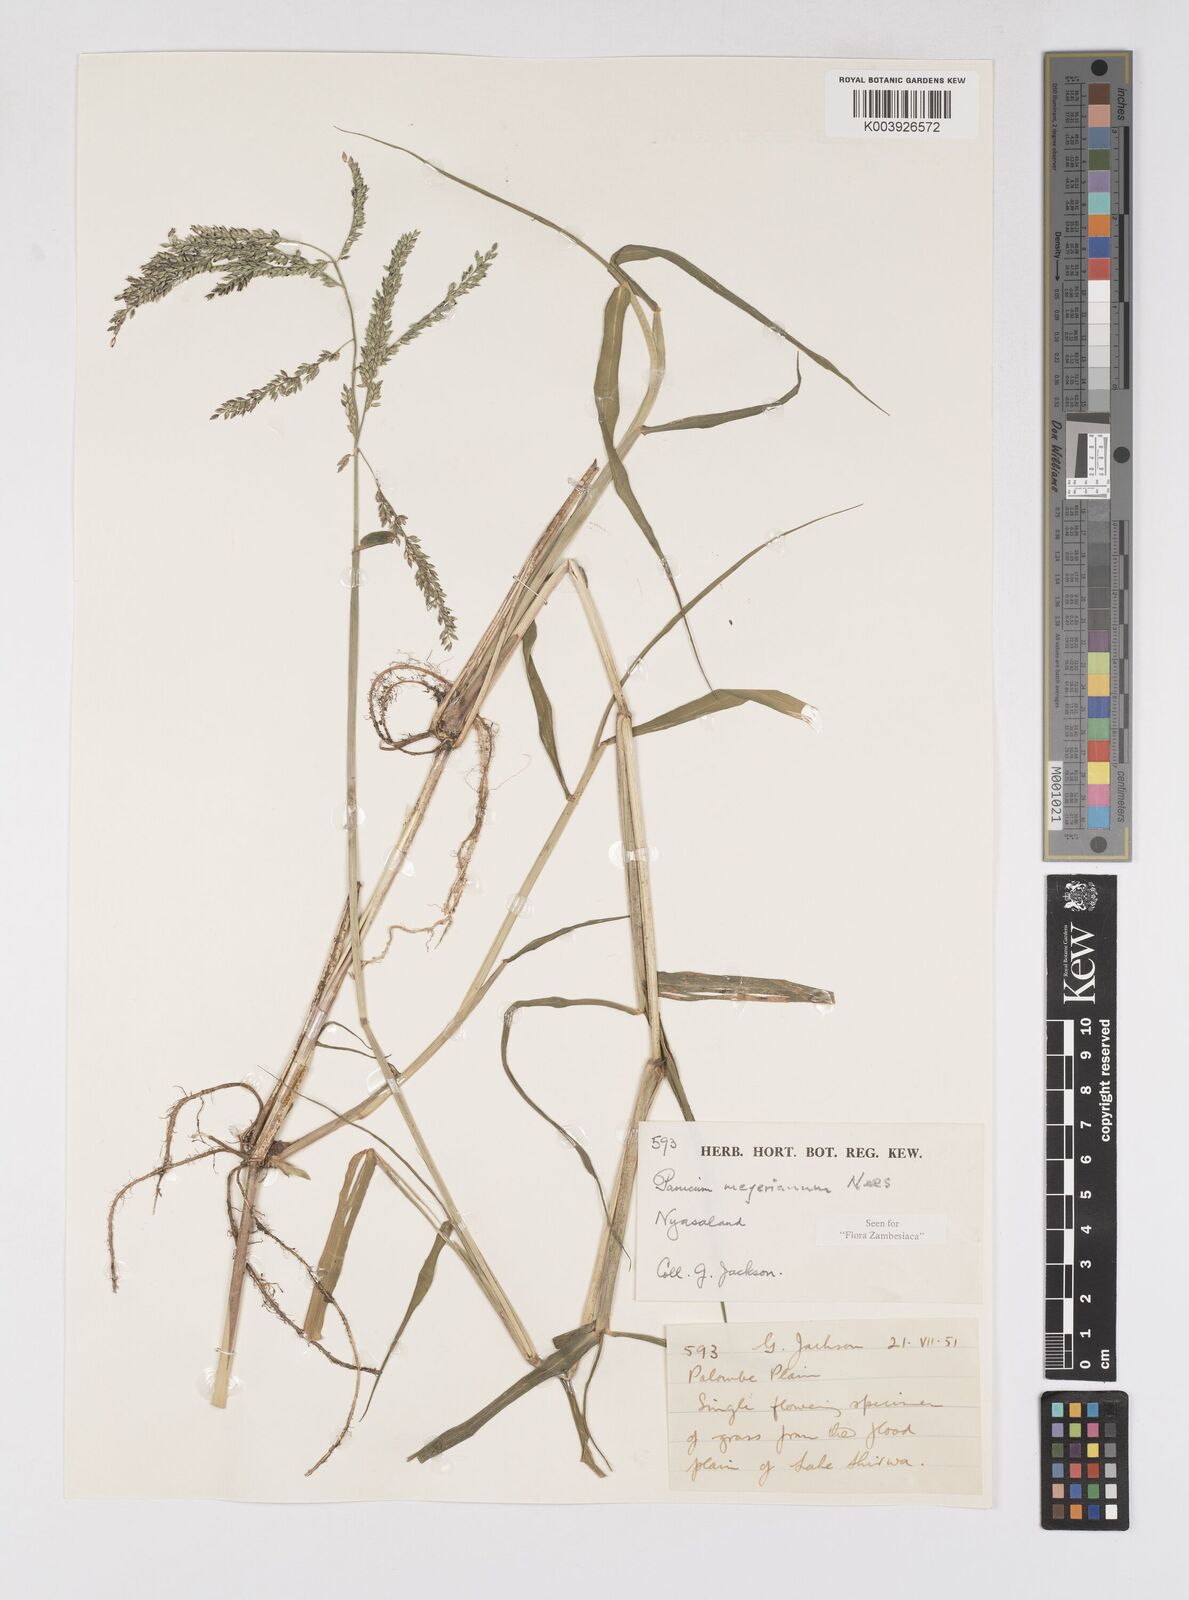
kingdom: Plantae
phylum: Tracheophyta
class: Liliopsida
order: Poales
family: Poaceae
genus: Eriochloa
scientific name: Eriochloa meyeriana
